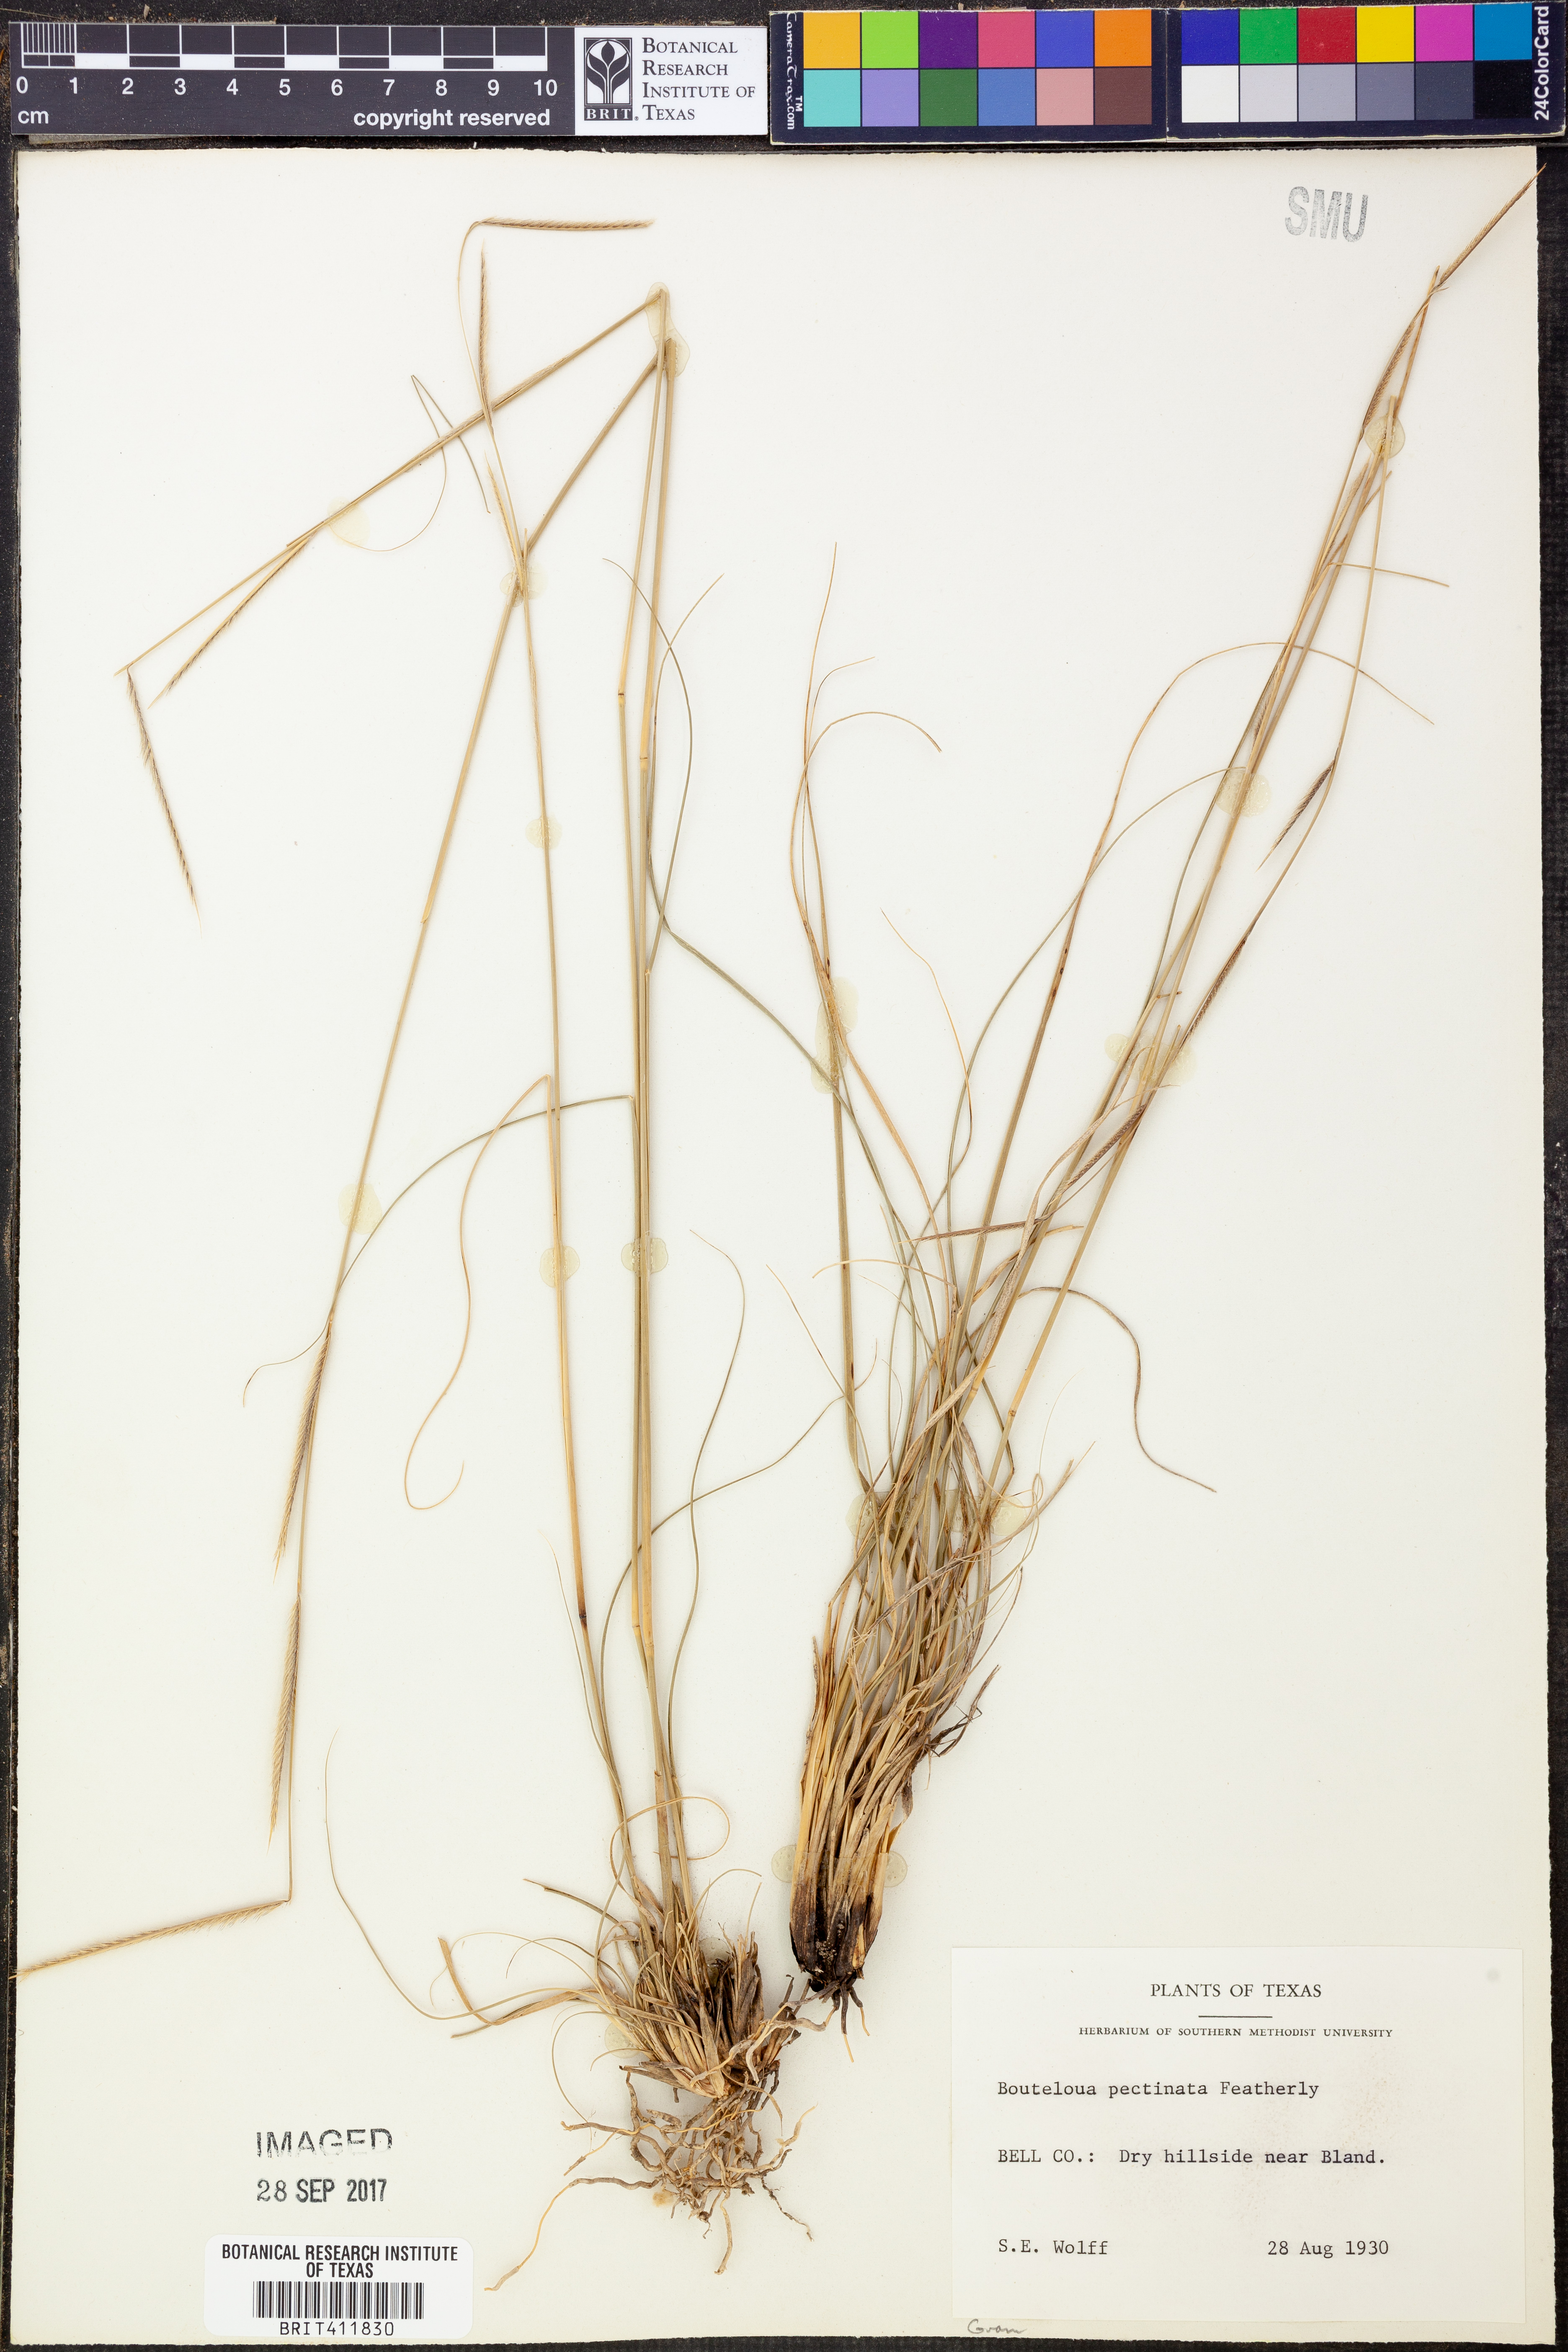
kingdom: Plantae
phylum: Tracheophyta
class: Liliopsida
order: Poales
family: Poaceae
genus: Bouteloua
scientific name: Bouteloua pectinata
